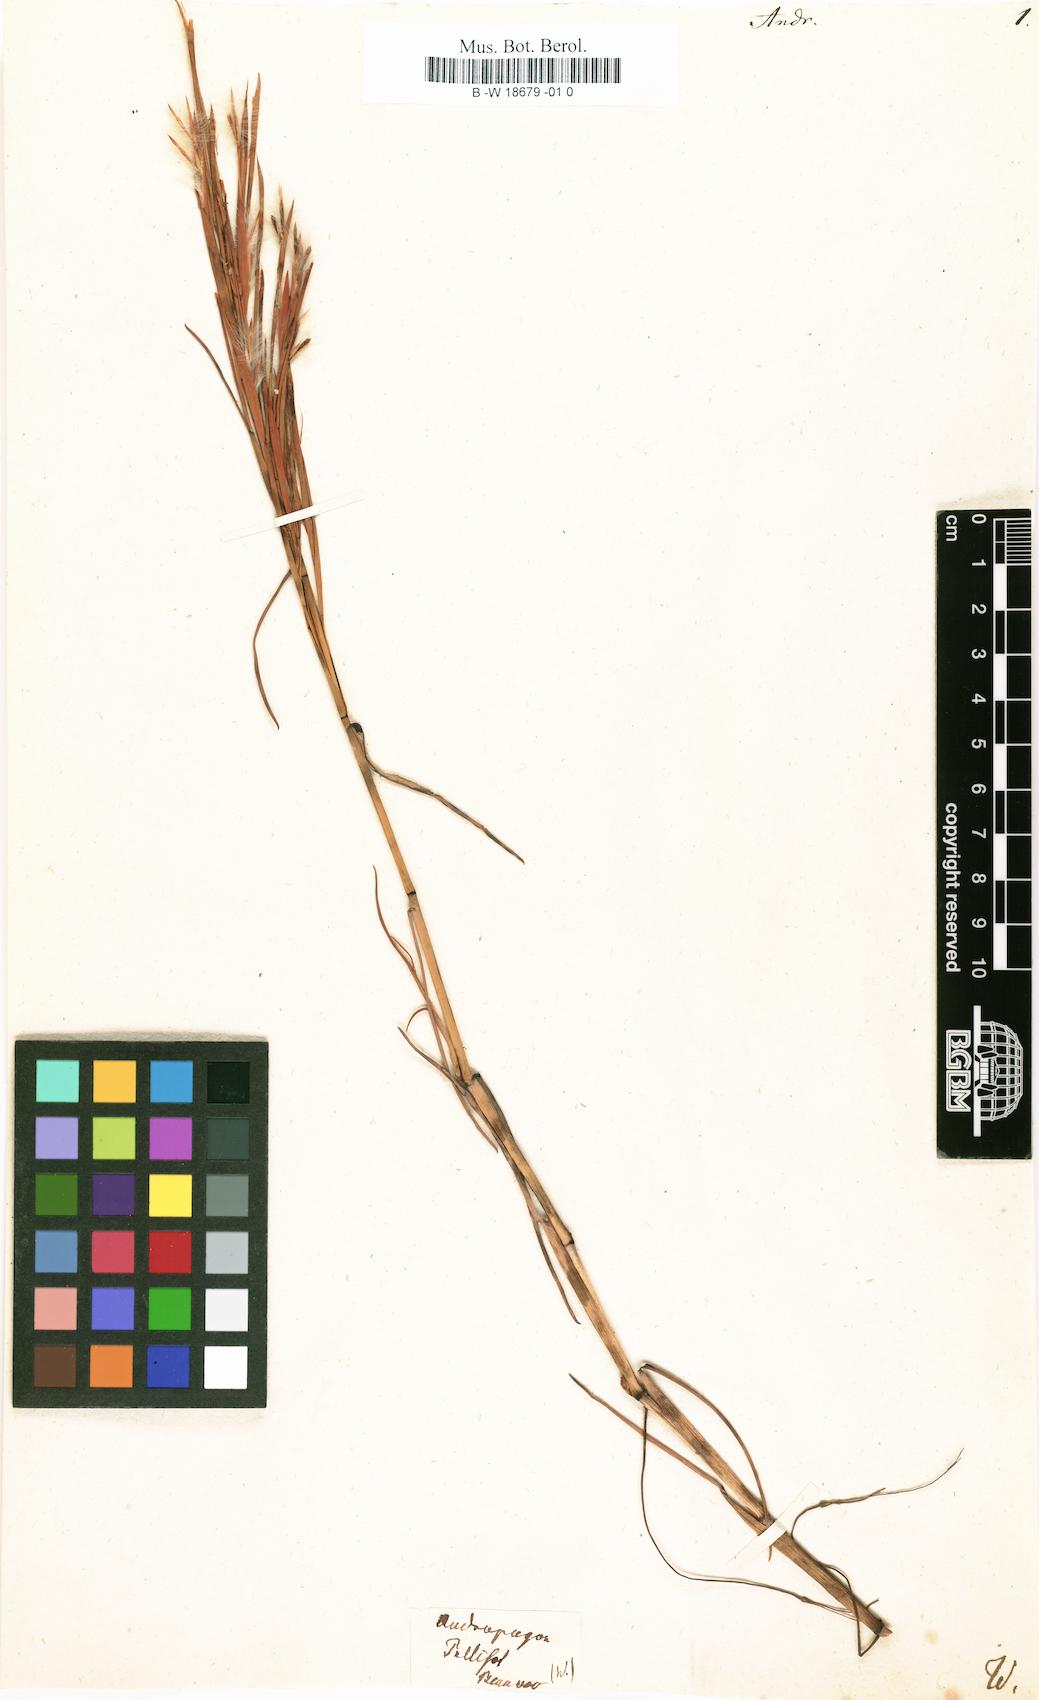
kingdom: Plantae
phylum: Tracheophyta
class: Liliopsida
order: Poales
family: Poaceae
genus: Andropogon
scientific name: Andropogon
